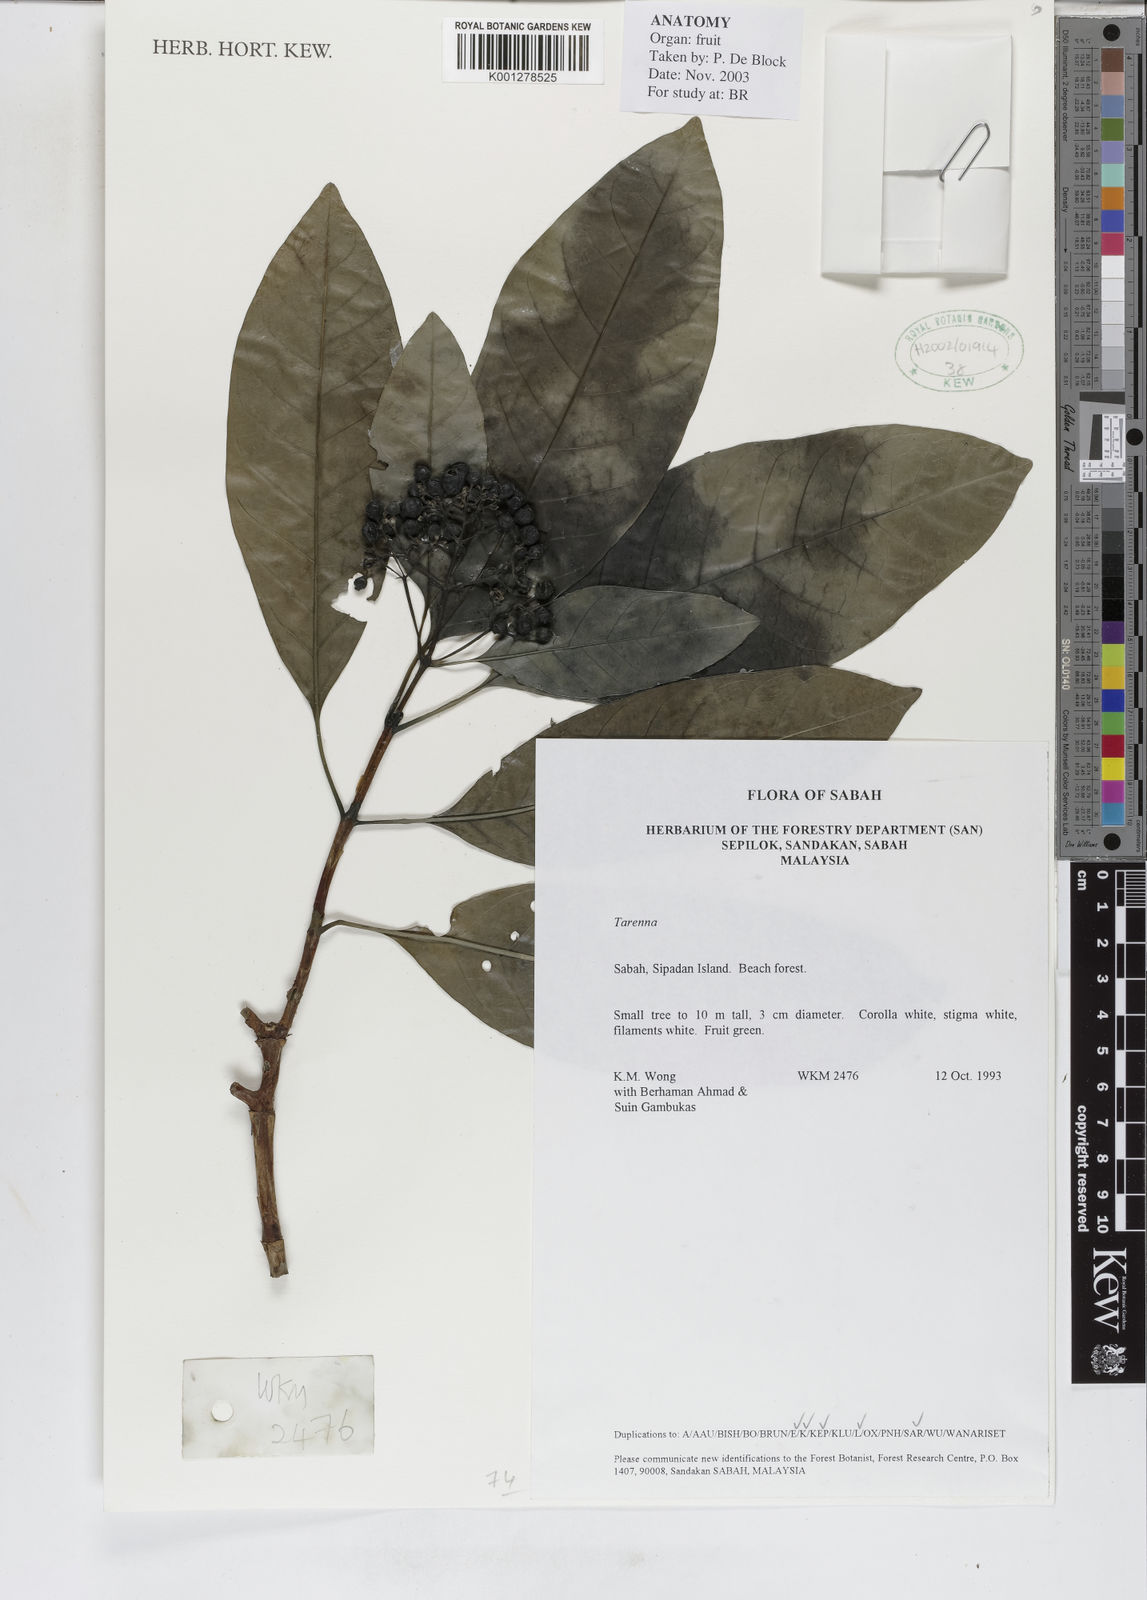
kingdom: Plantae
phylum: Tracheophyta
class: Magnoliopsida
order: Gentianales
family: Rubiaceae
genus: Tarenna
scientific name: Tarenna
